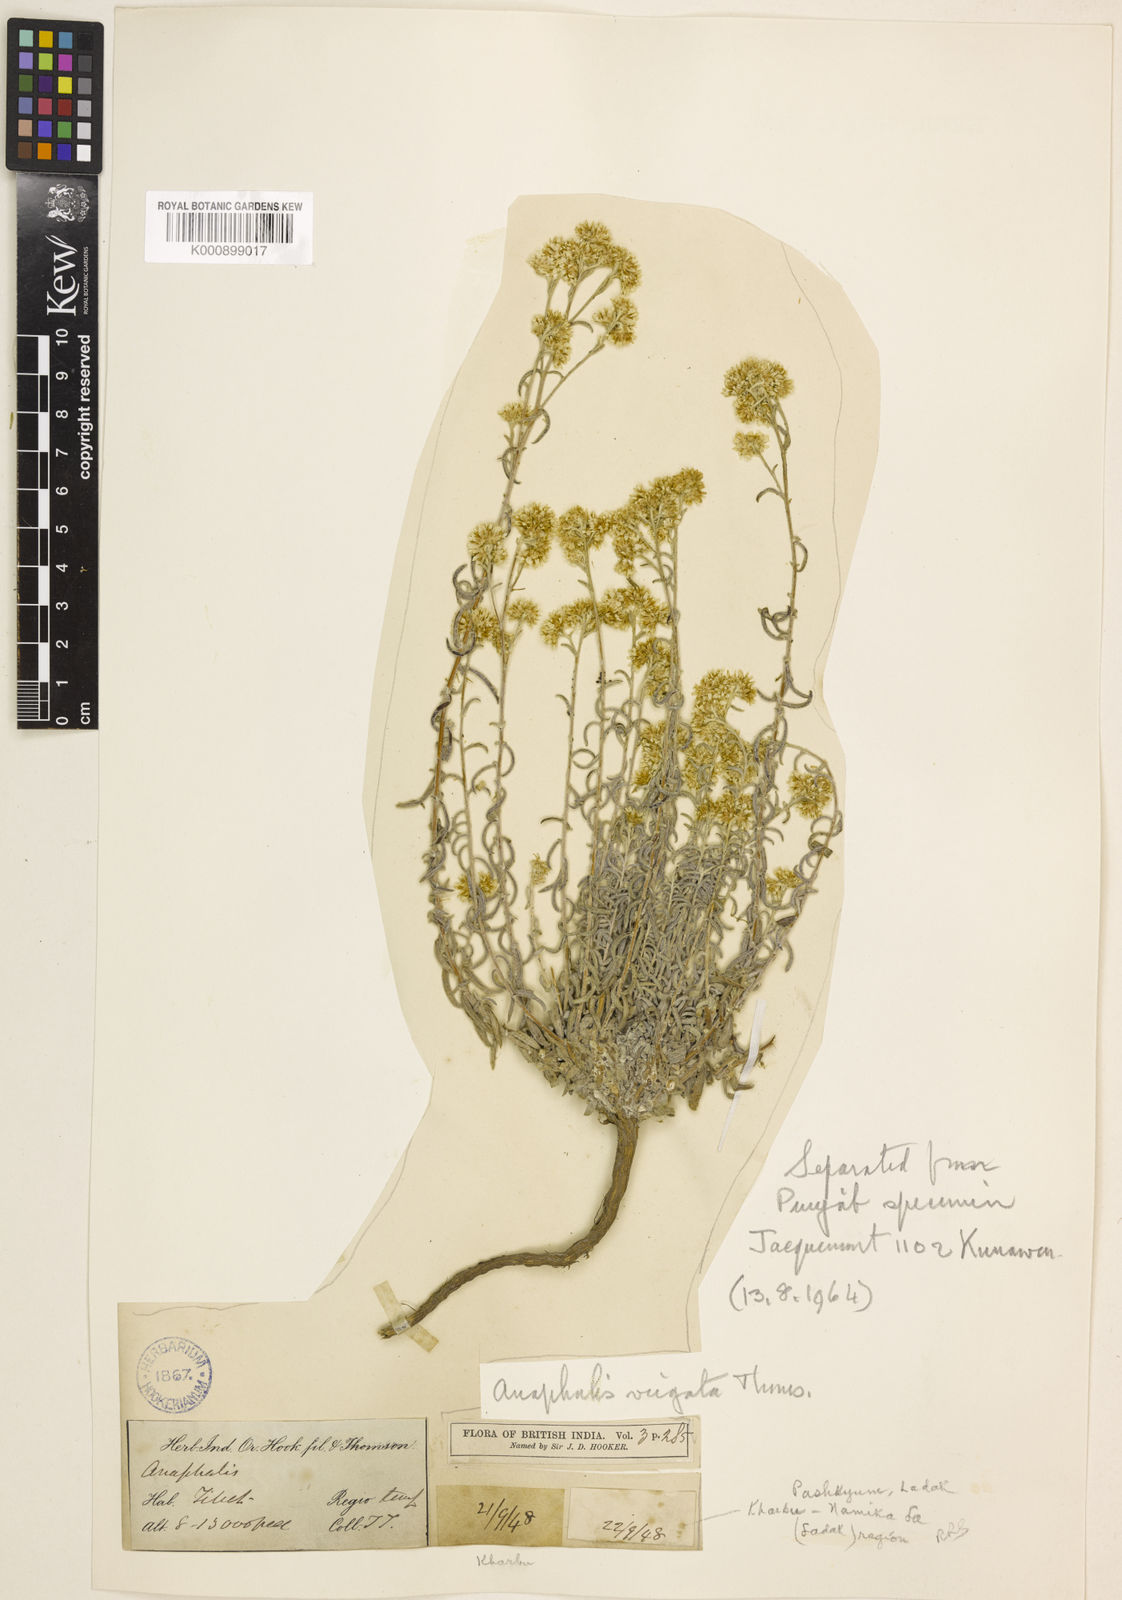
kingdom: Plantae
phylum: Tracheophyta
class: Magnoliopsida
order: Asterales
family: Asteraceae
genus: Anaphalis
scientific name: Anaphalis virgata
